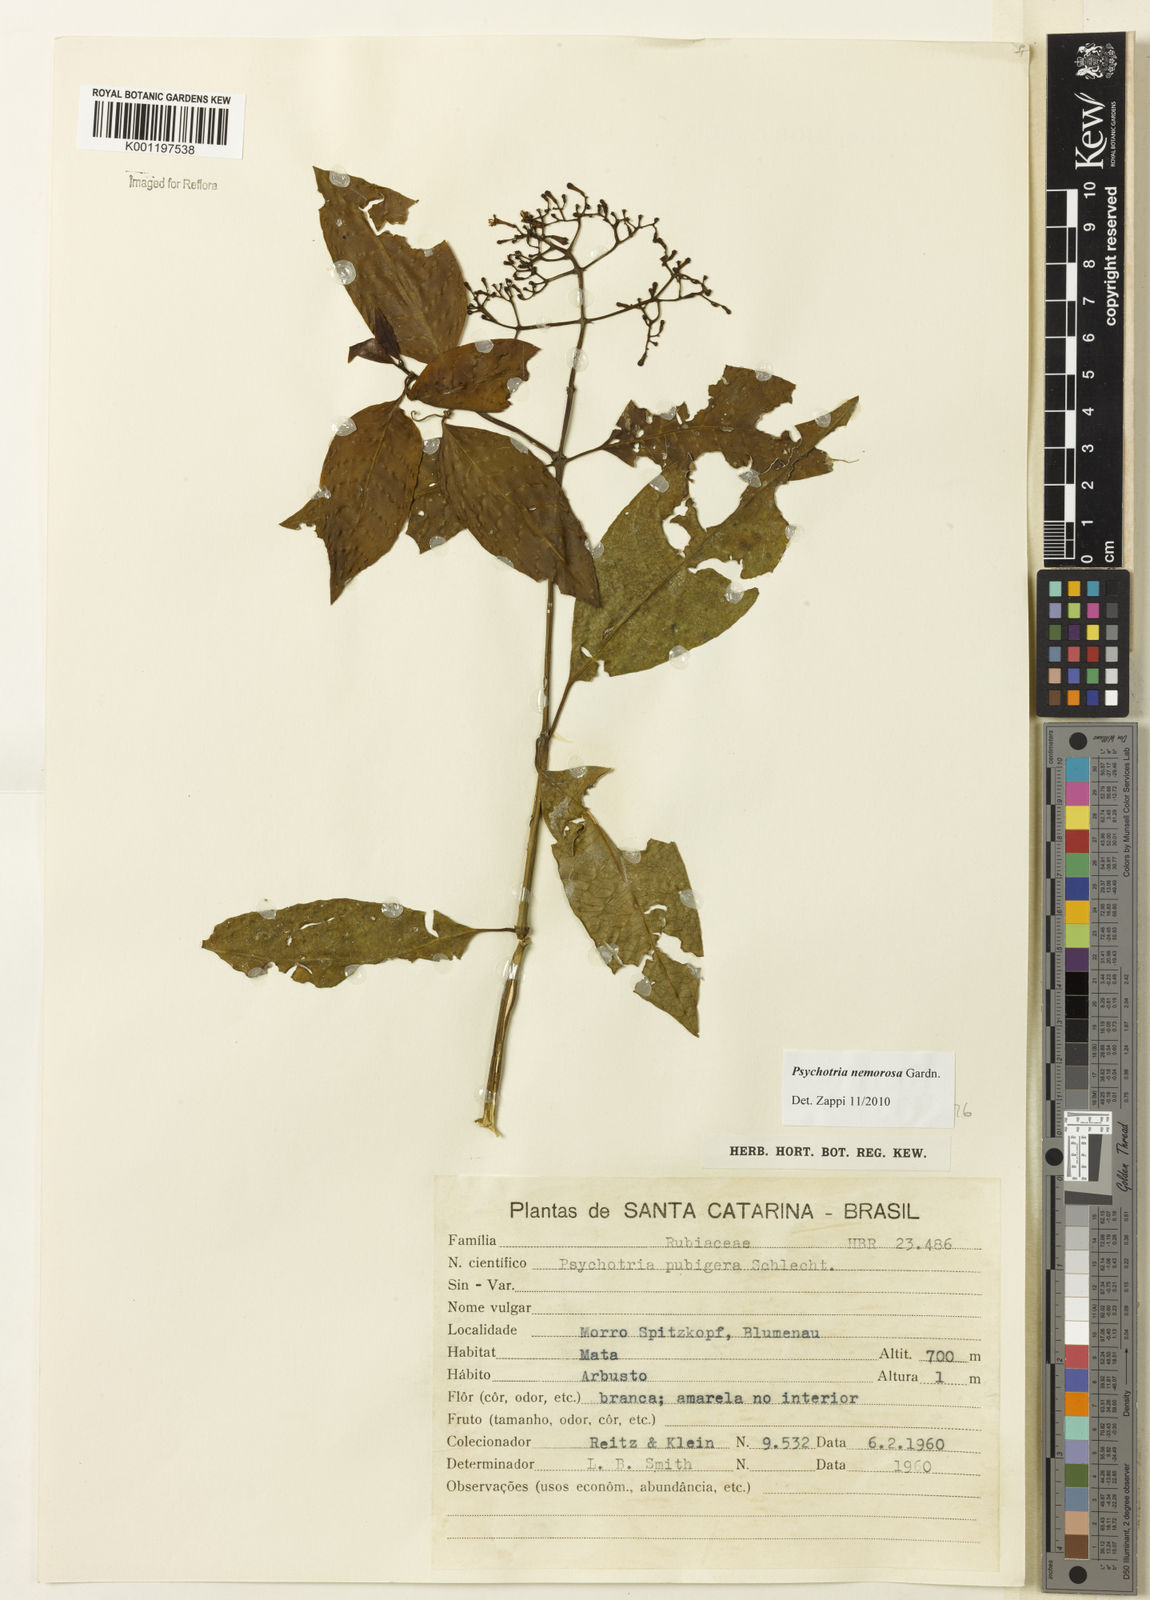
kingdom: Plantae
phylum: Tracheophyta
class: Magnoliopsida
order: Gentianales
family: Rubiaceae
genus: Psychotria
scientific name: Psychotria nemorosa
